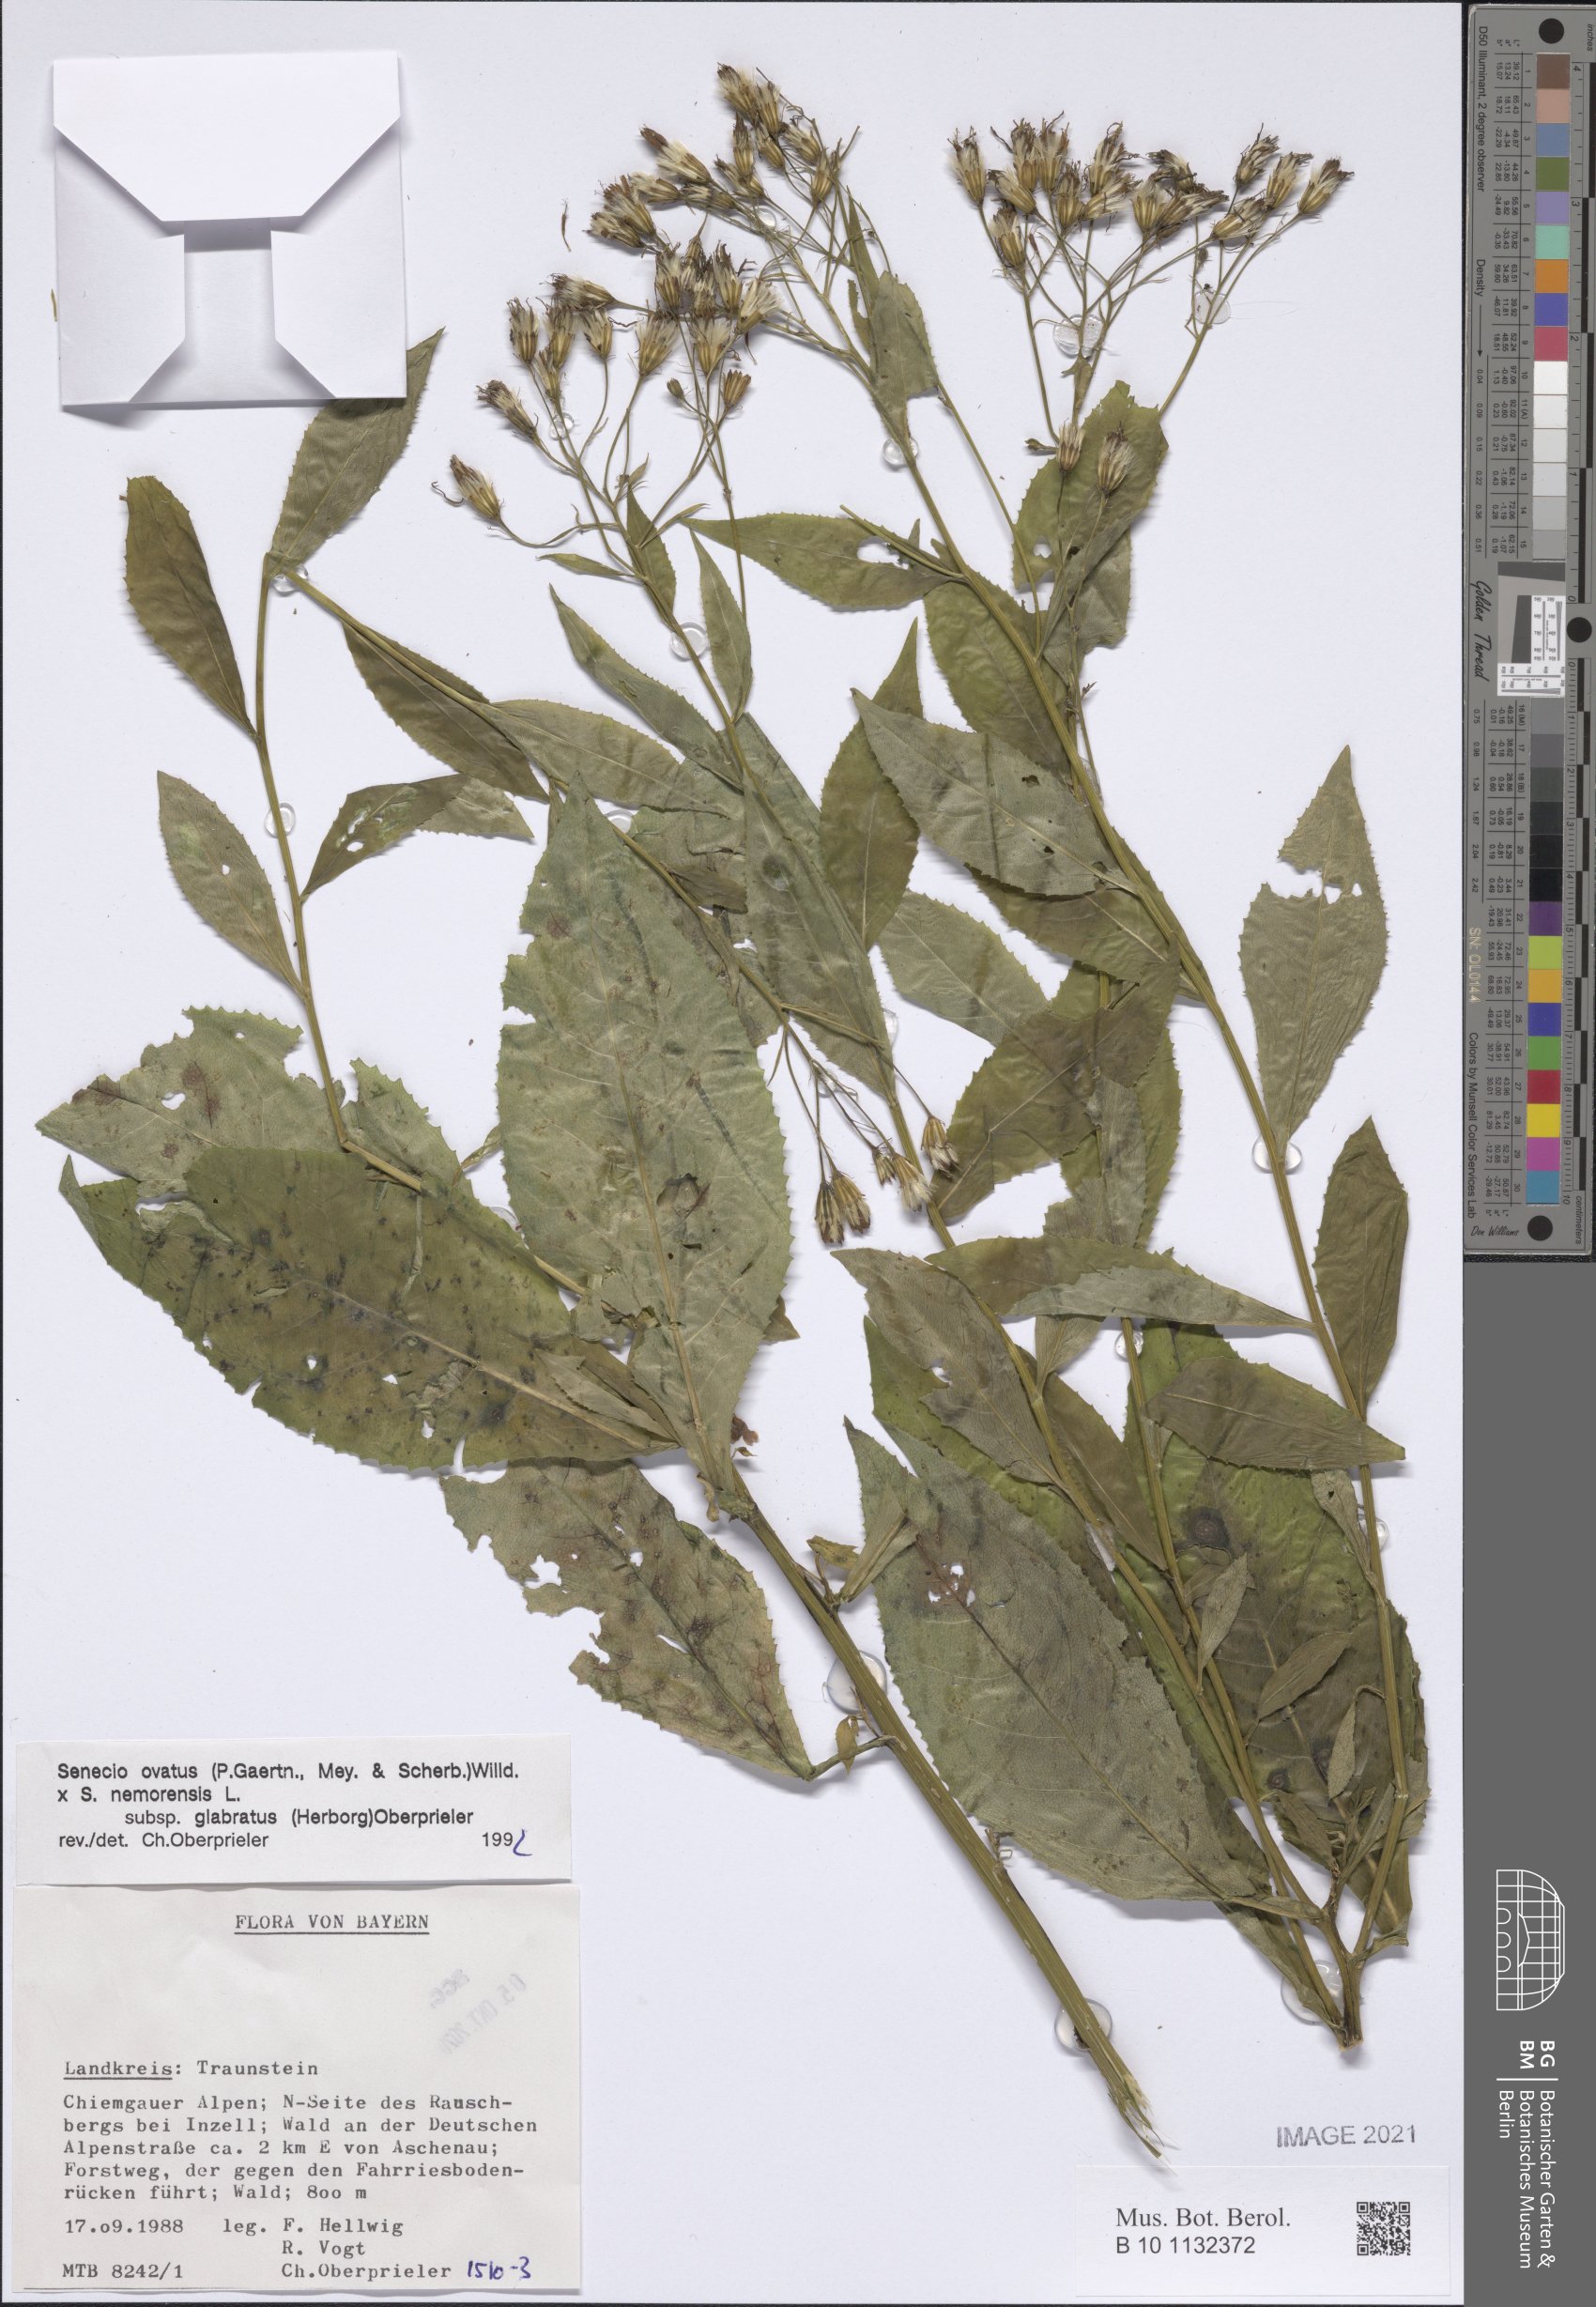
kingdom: Plantae
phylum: Tracheophyta
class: Magnoliopsida
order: Asterales
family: Asteraceae
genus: Senecio
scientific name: Senecio ovatus
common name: Wood ragwort
